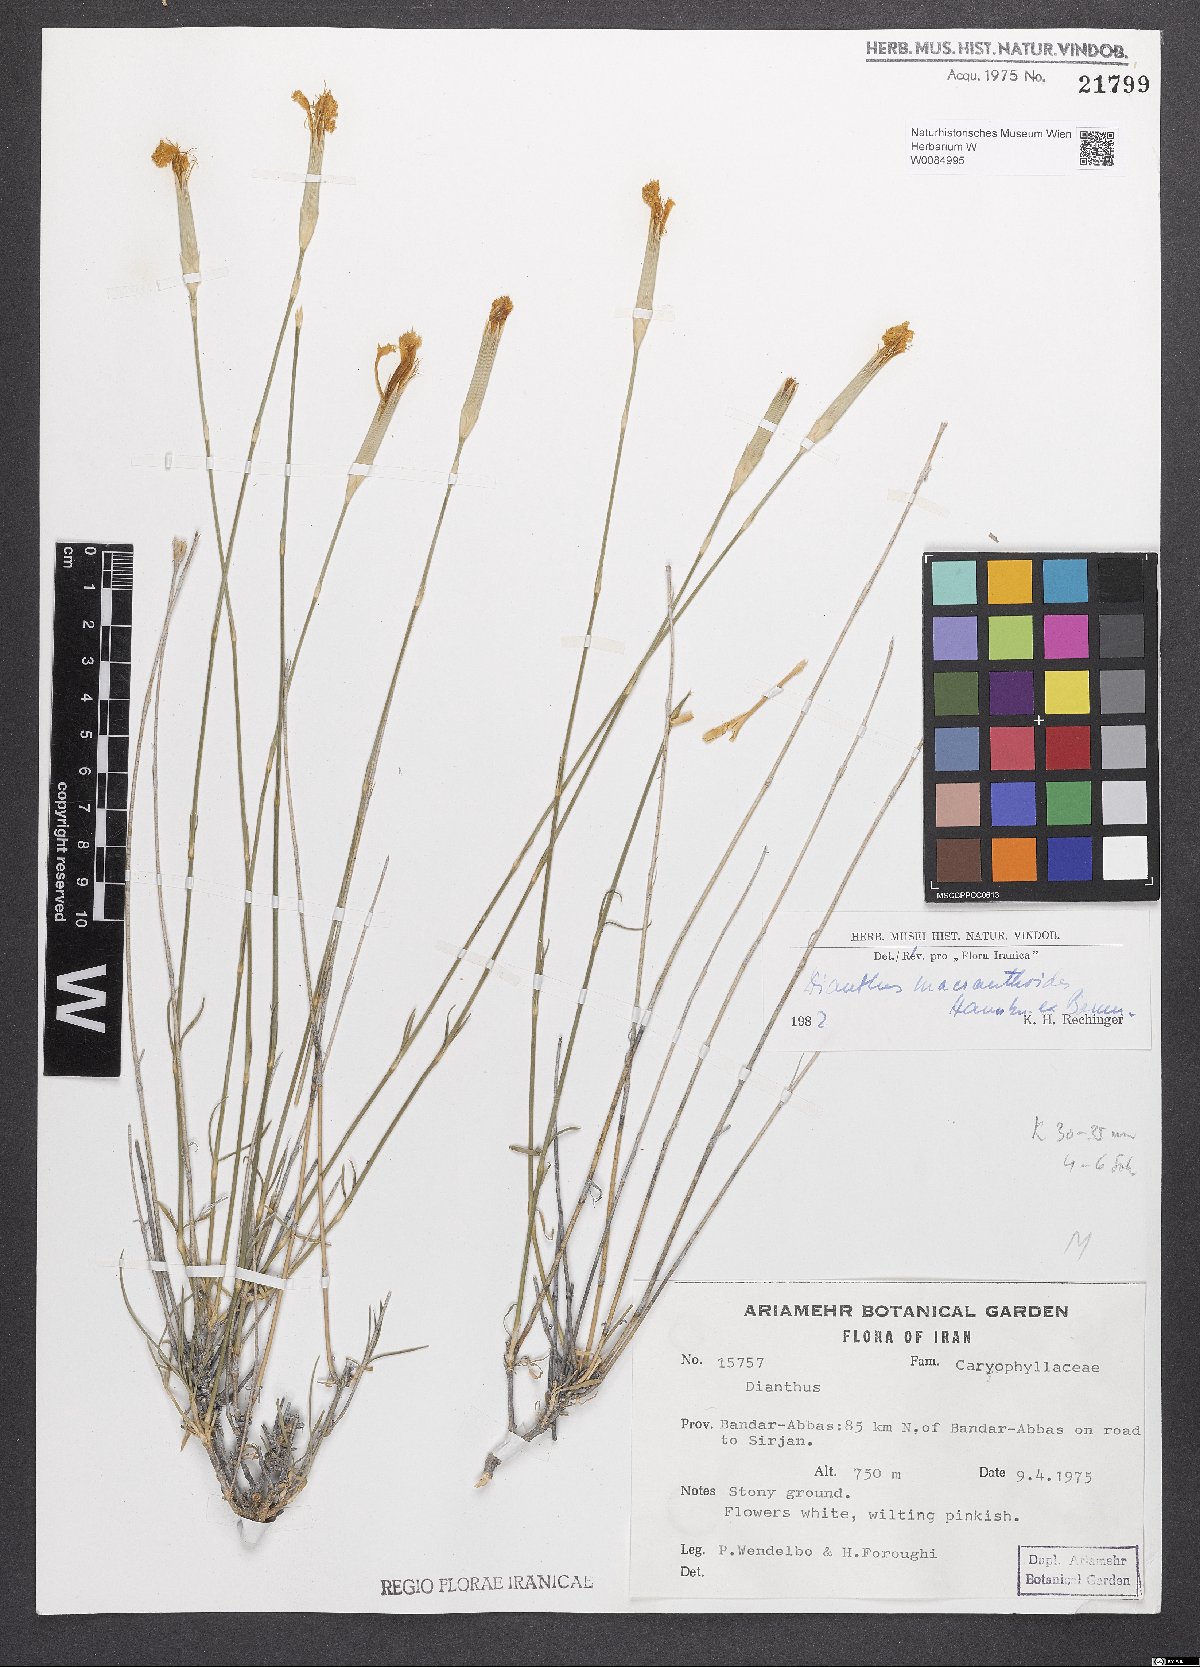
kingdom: Plantae
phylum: Tracheophyta
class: Magnoliopsida
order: Caryophyllales
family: Caryophyllaceae
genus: Dianthus
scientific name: Dianthus macranthoides
